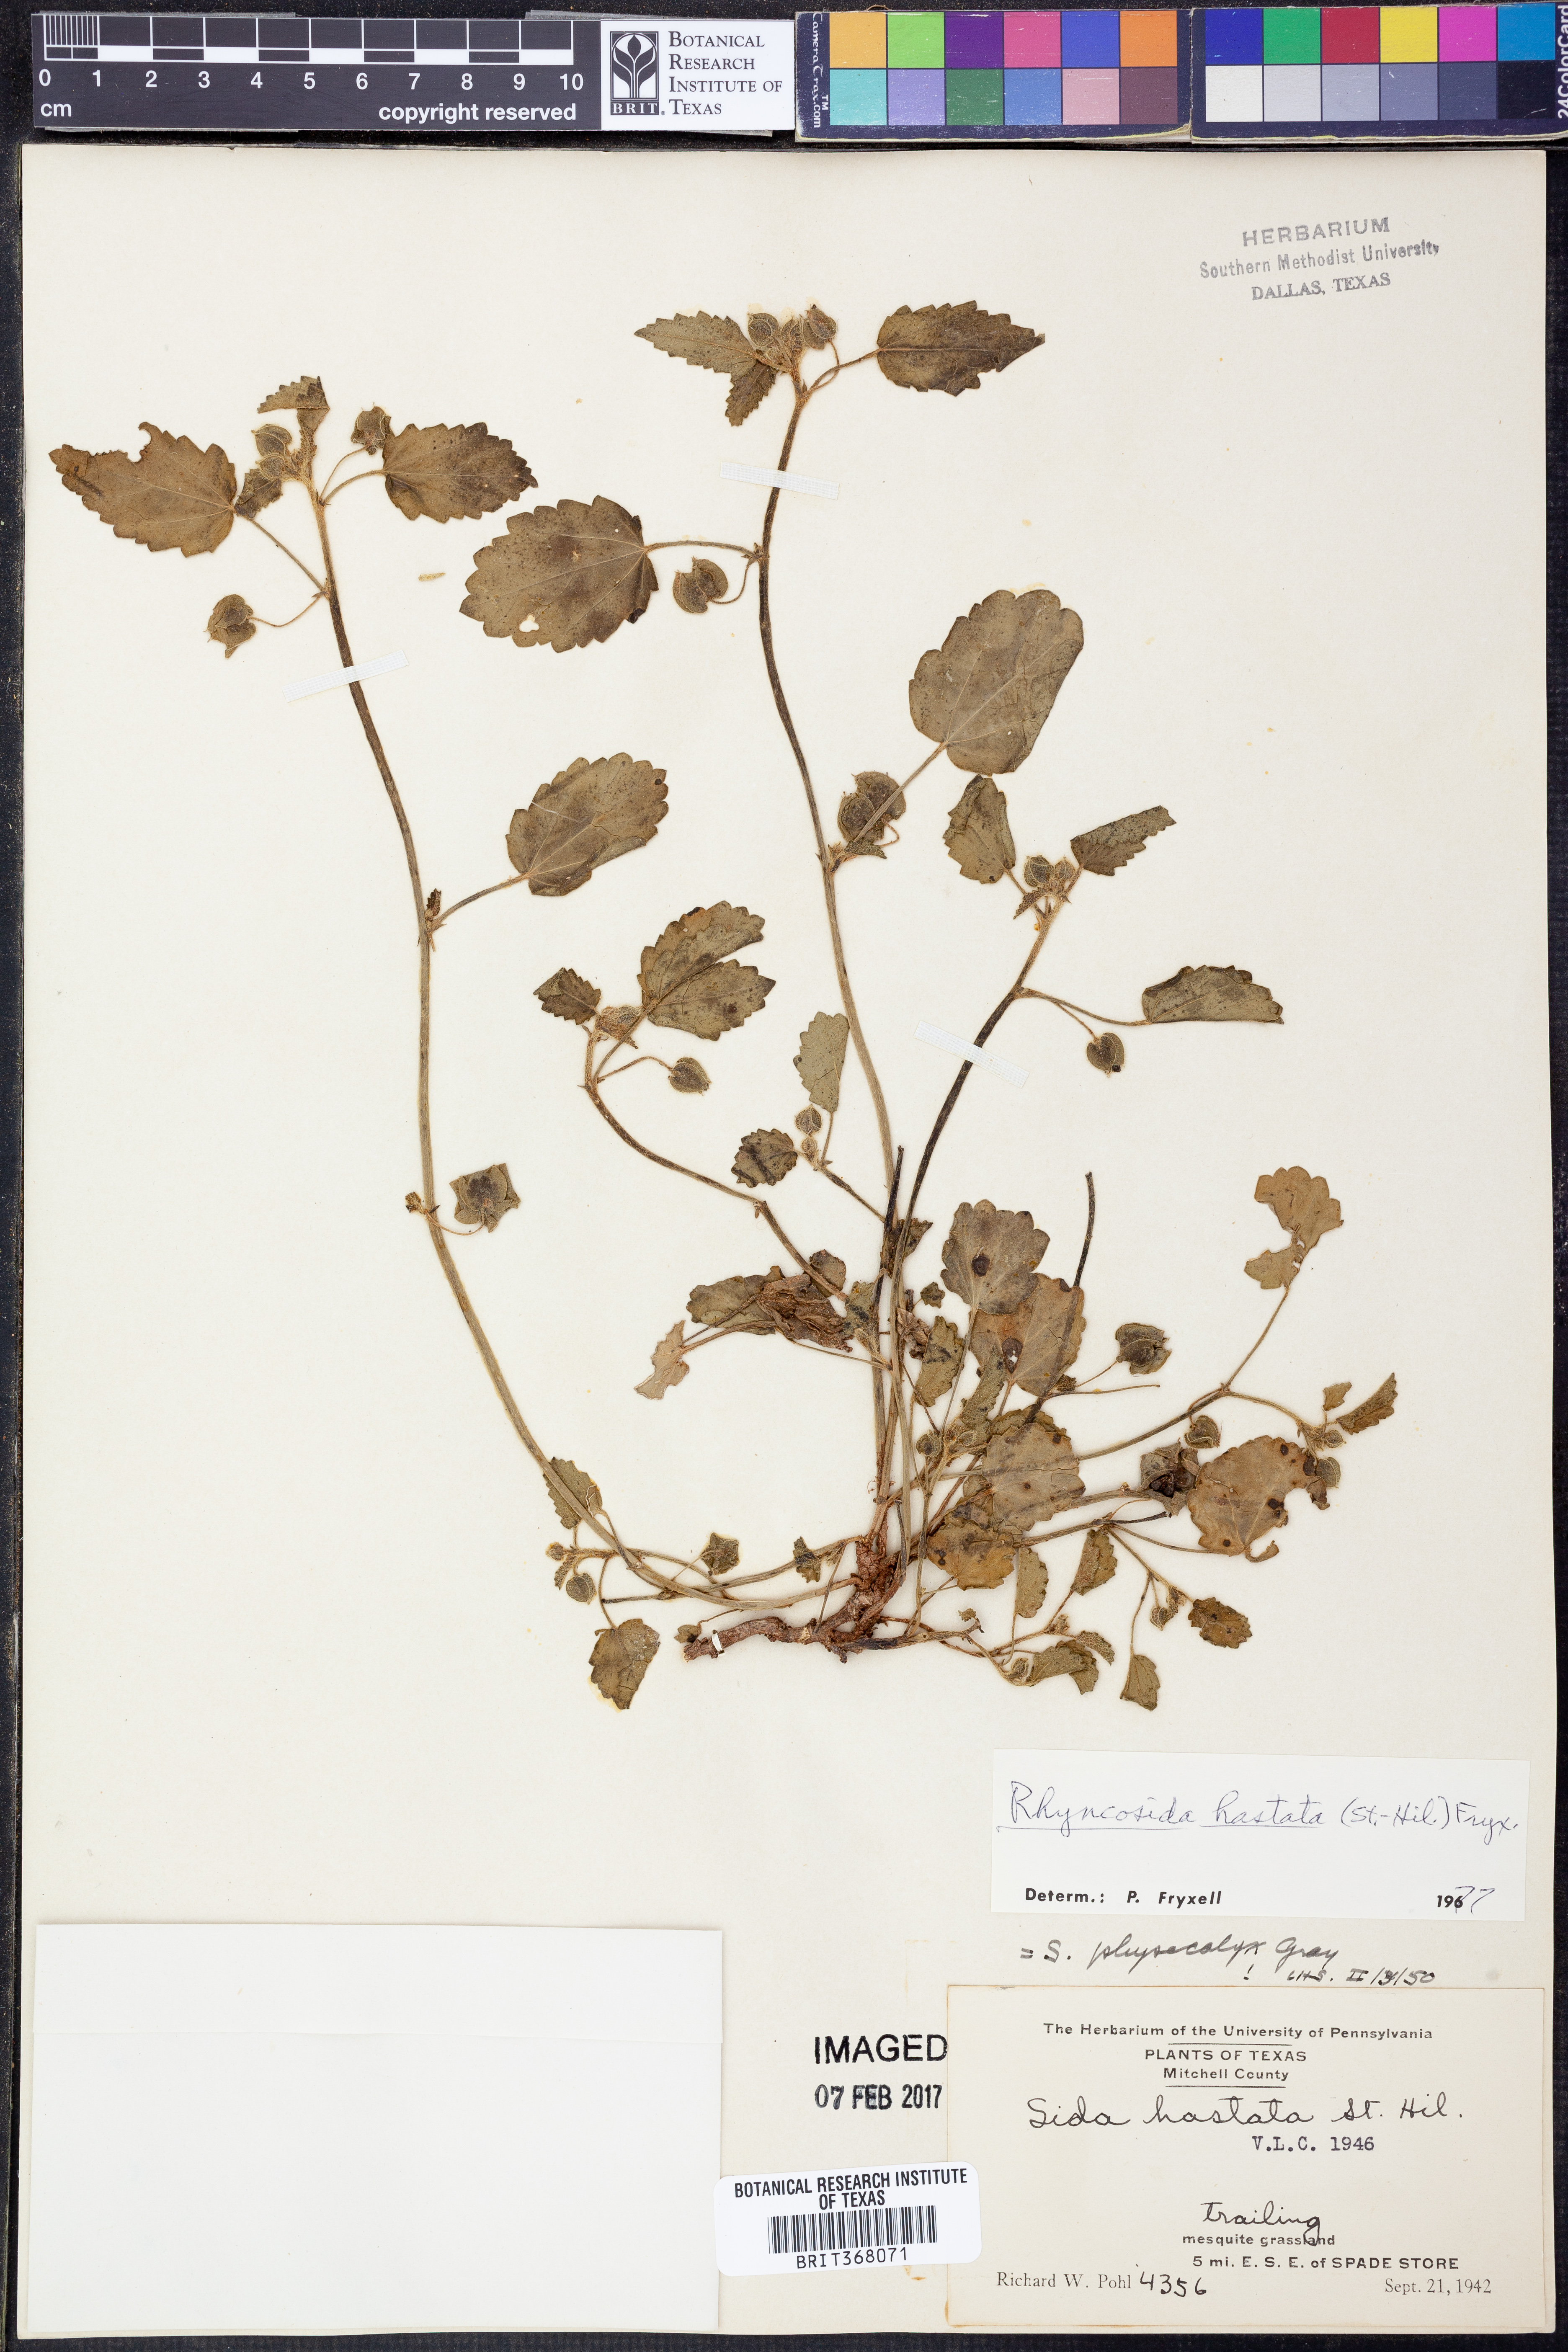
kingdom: Plantae
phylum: Tracheophyta
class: Magnoliopsida
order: Malvales
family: Malvaceae
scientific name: Malvaceae
